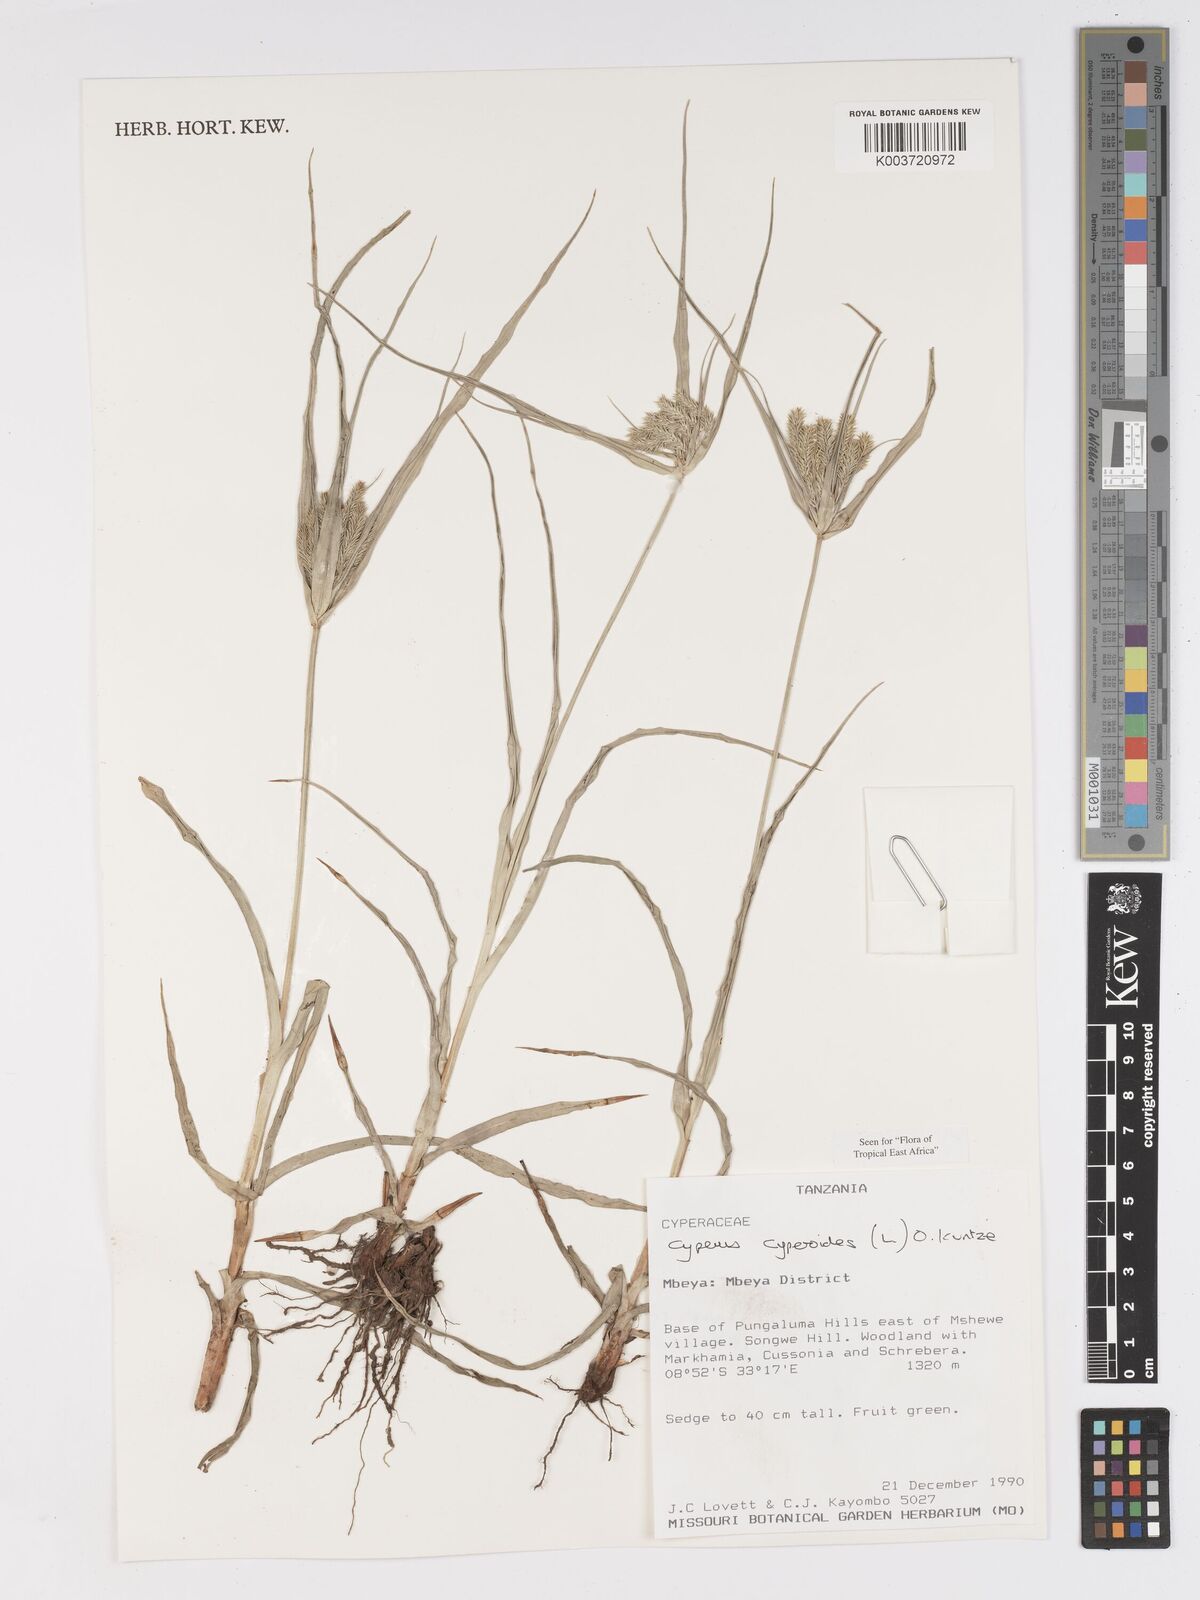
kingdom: Plantae
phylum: Tracheophyta
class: Liliopsida
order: Poales
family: Cyperaceae
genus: Cyperus
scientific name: Cyperus cyperoides
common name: Pacific island flat sedge
